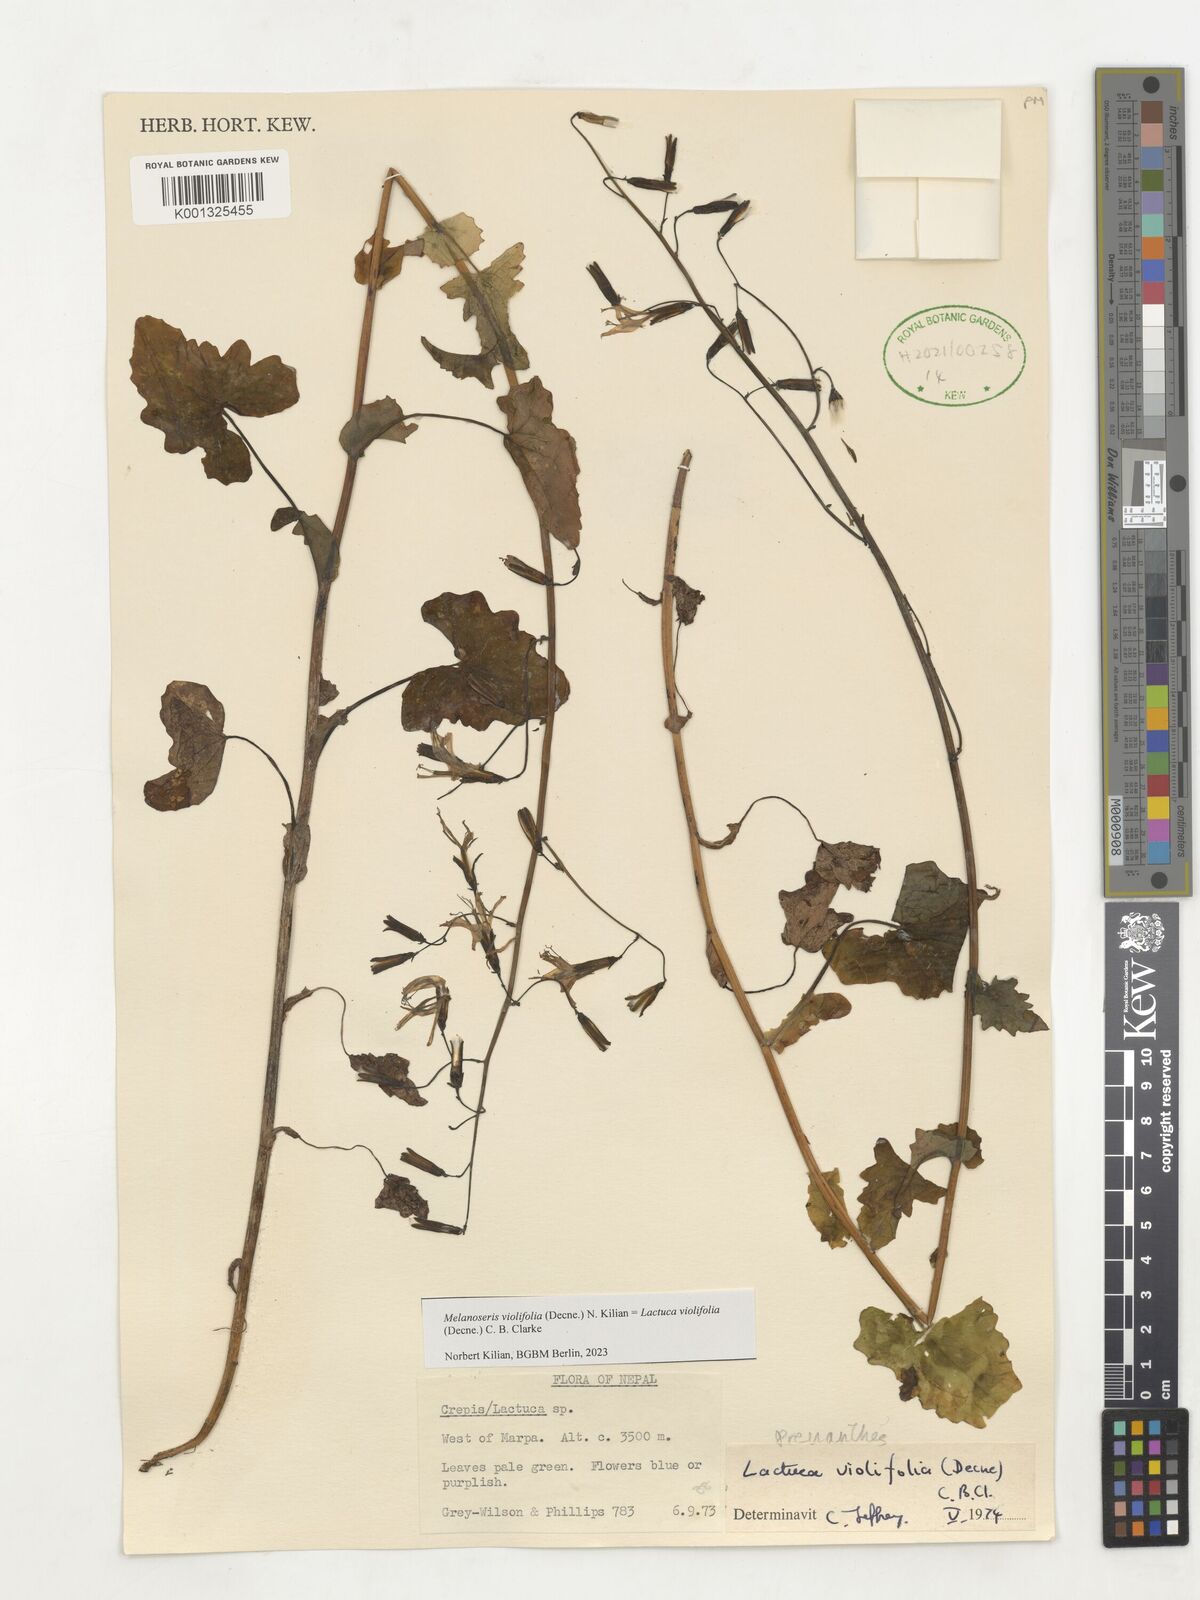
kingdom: Plantae
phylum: Tracheophyta
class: Magnoliopsida
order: Asterales
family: Asteraceae
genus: Melanoseris
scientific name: Melanoseris violifolia
